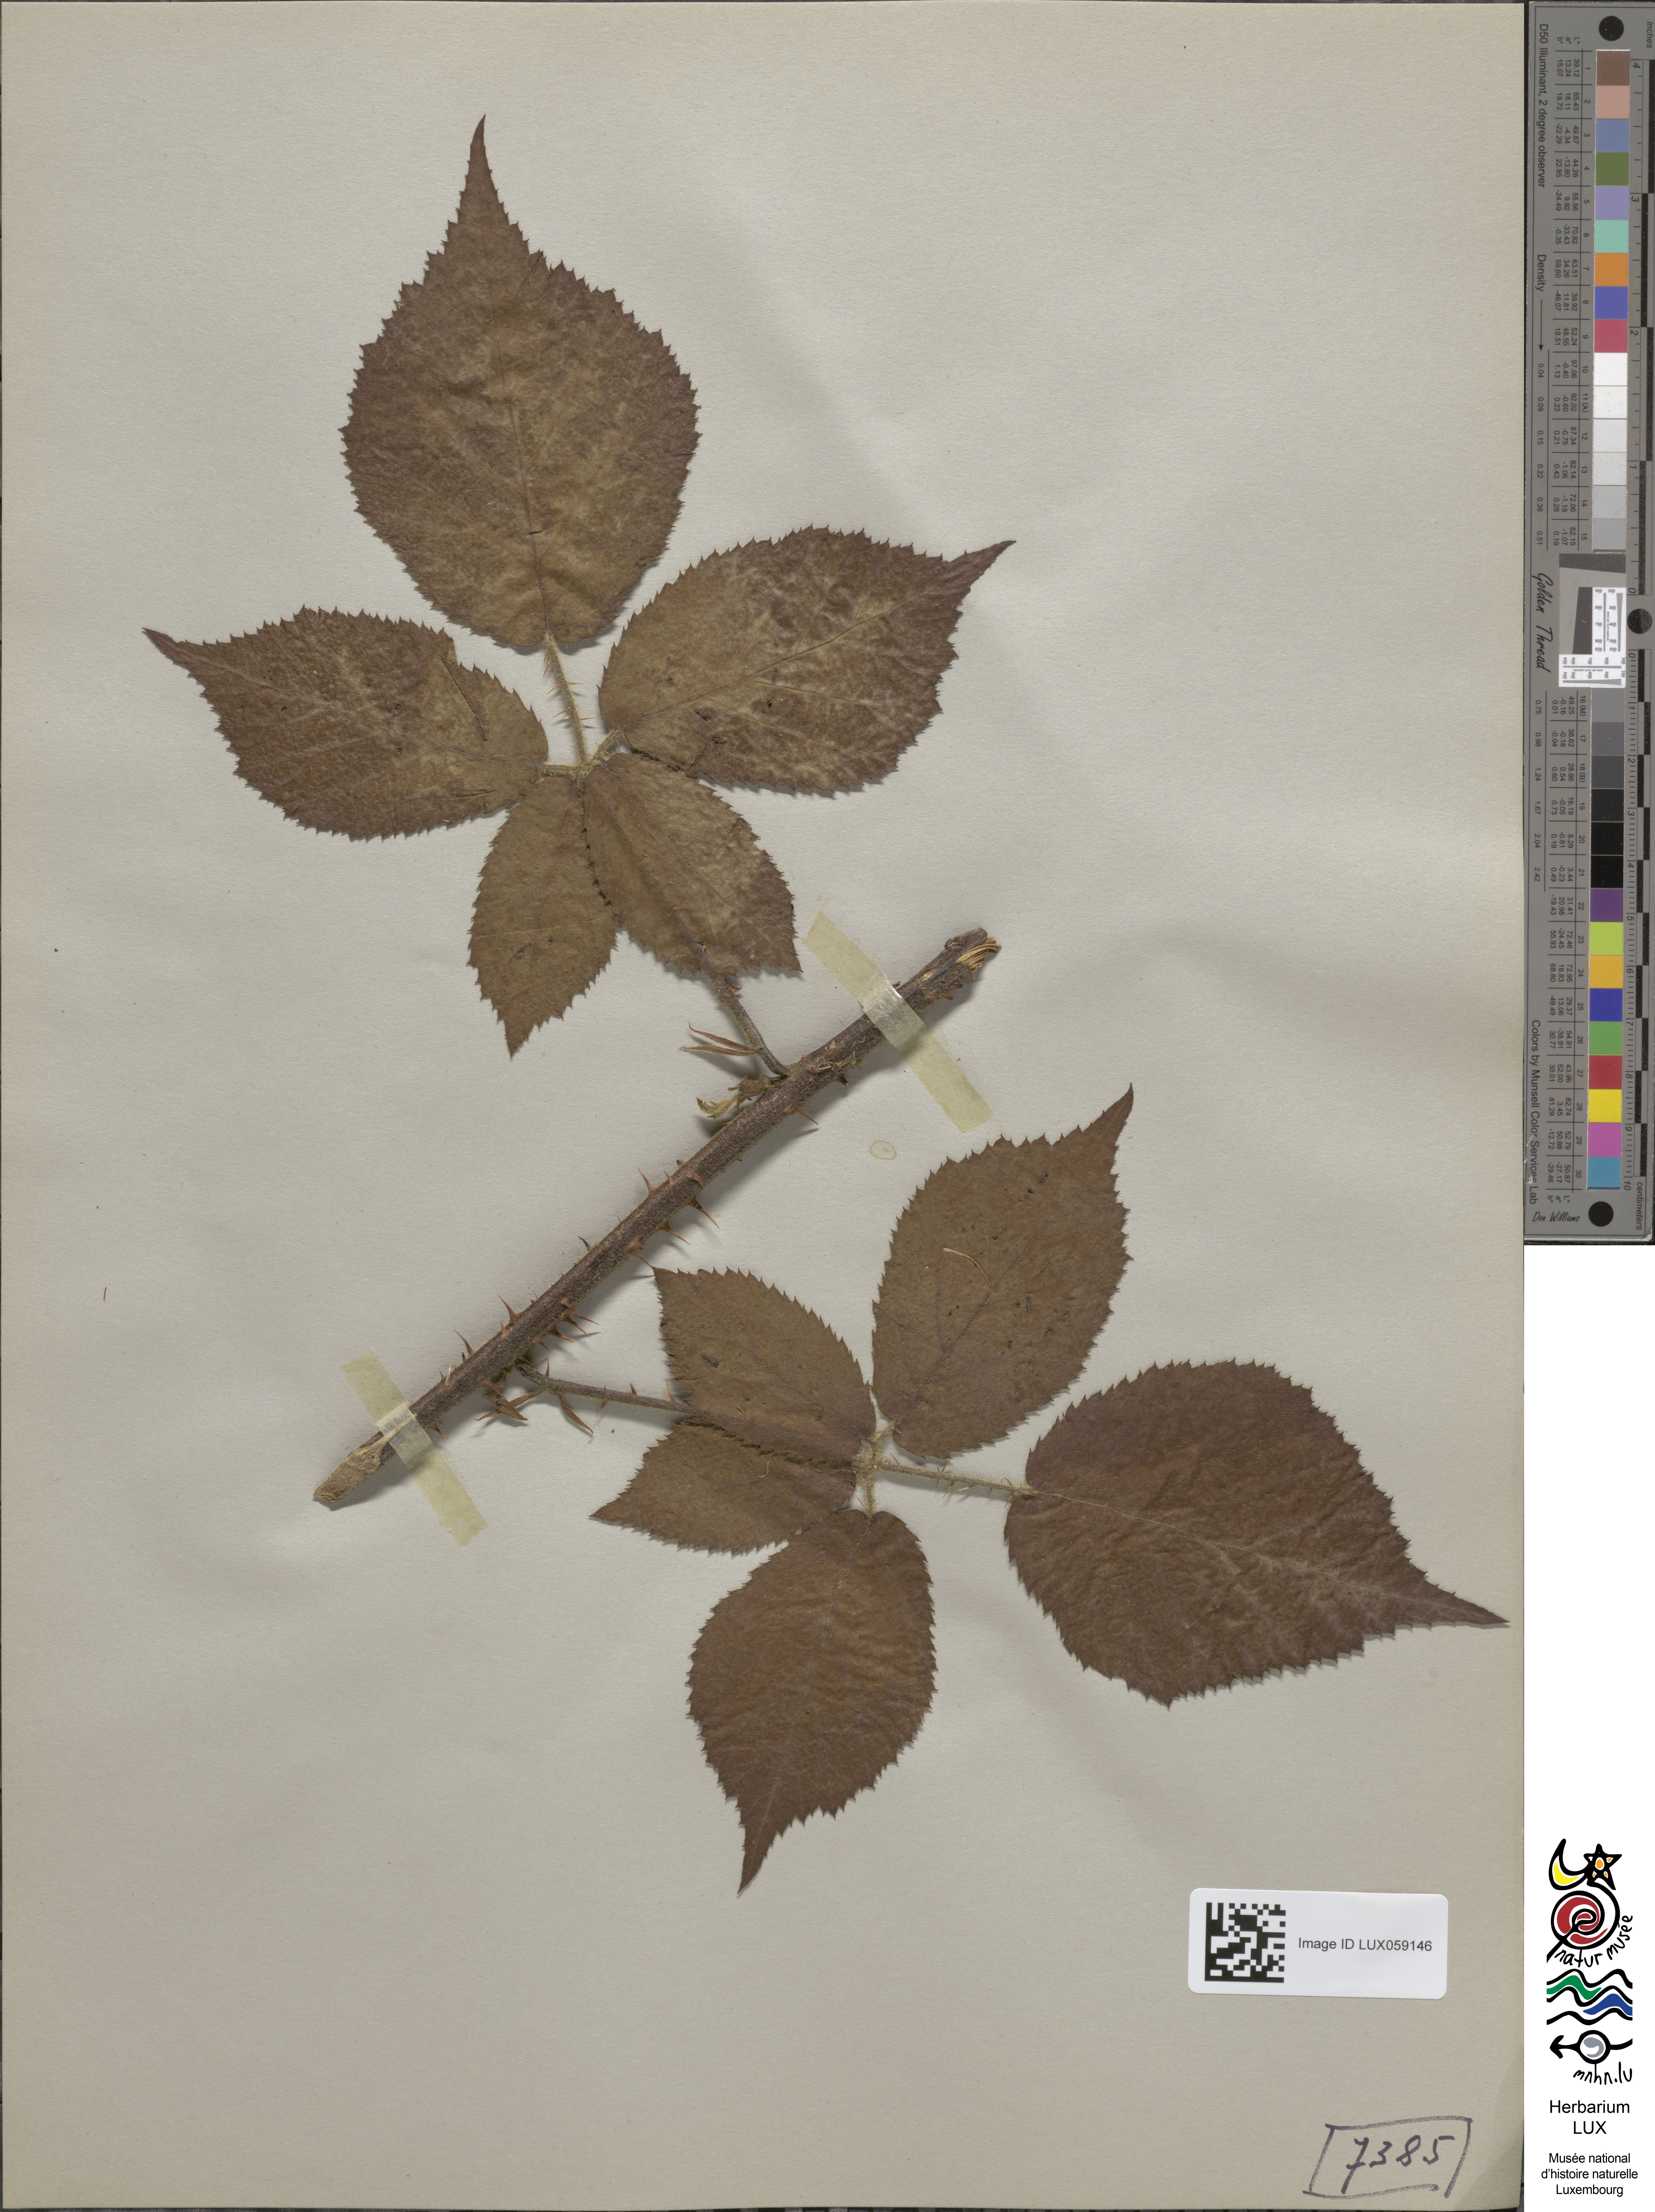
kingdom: Plantae
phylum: Tracheophyta
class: Magnoliopsida
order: Rosales
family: Rosaceae
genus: Rubus
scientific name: Rubus bifrons
